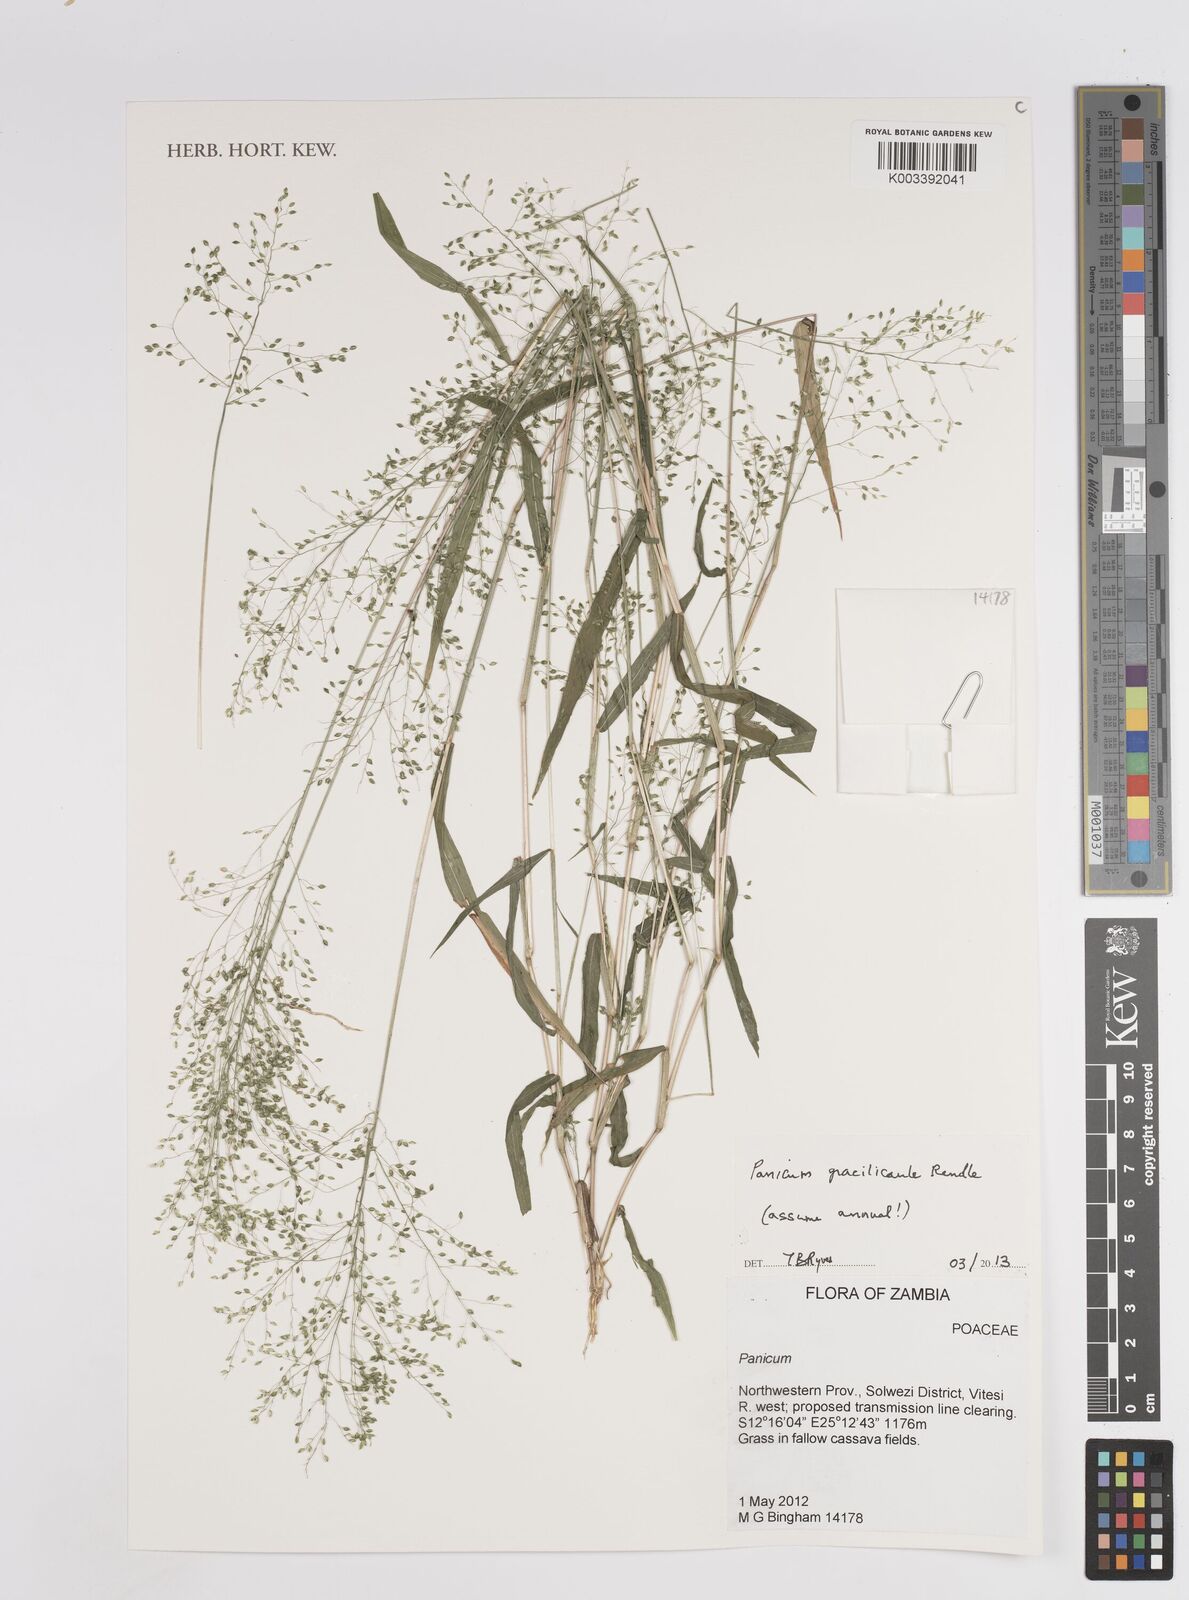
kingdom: Plantae
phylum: Tracheophyta
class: Liliopsida
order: Poales
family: Poaceae
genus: Trichanthecium
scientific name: Trichanthecium gracilicaule
